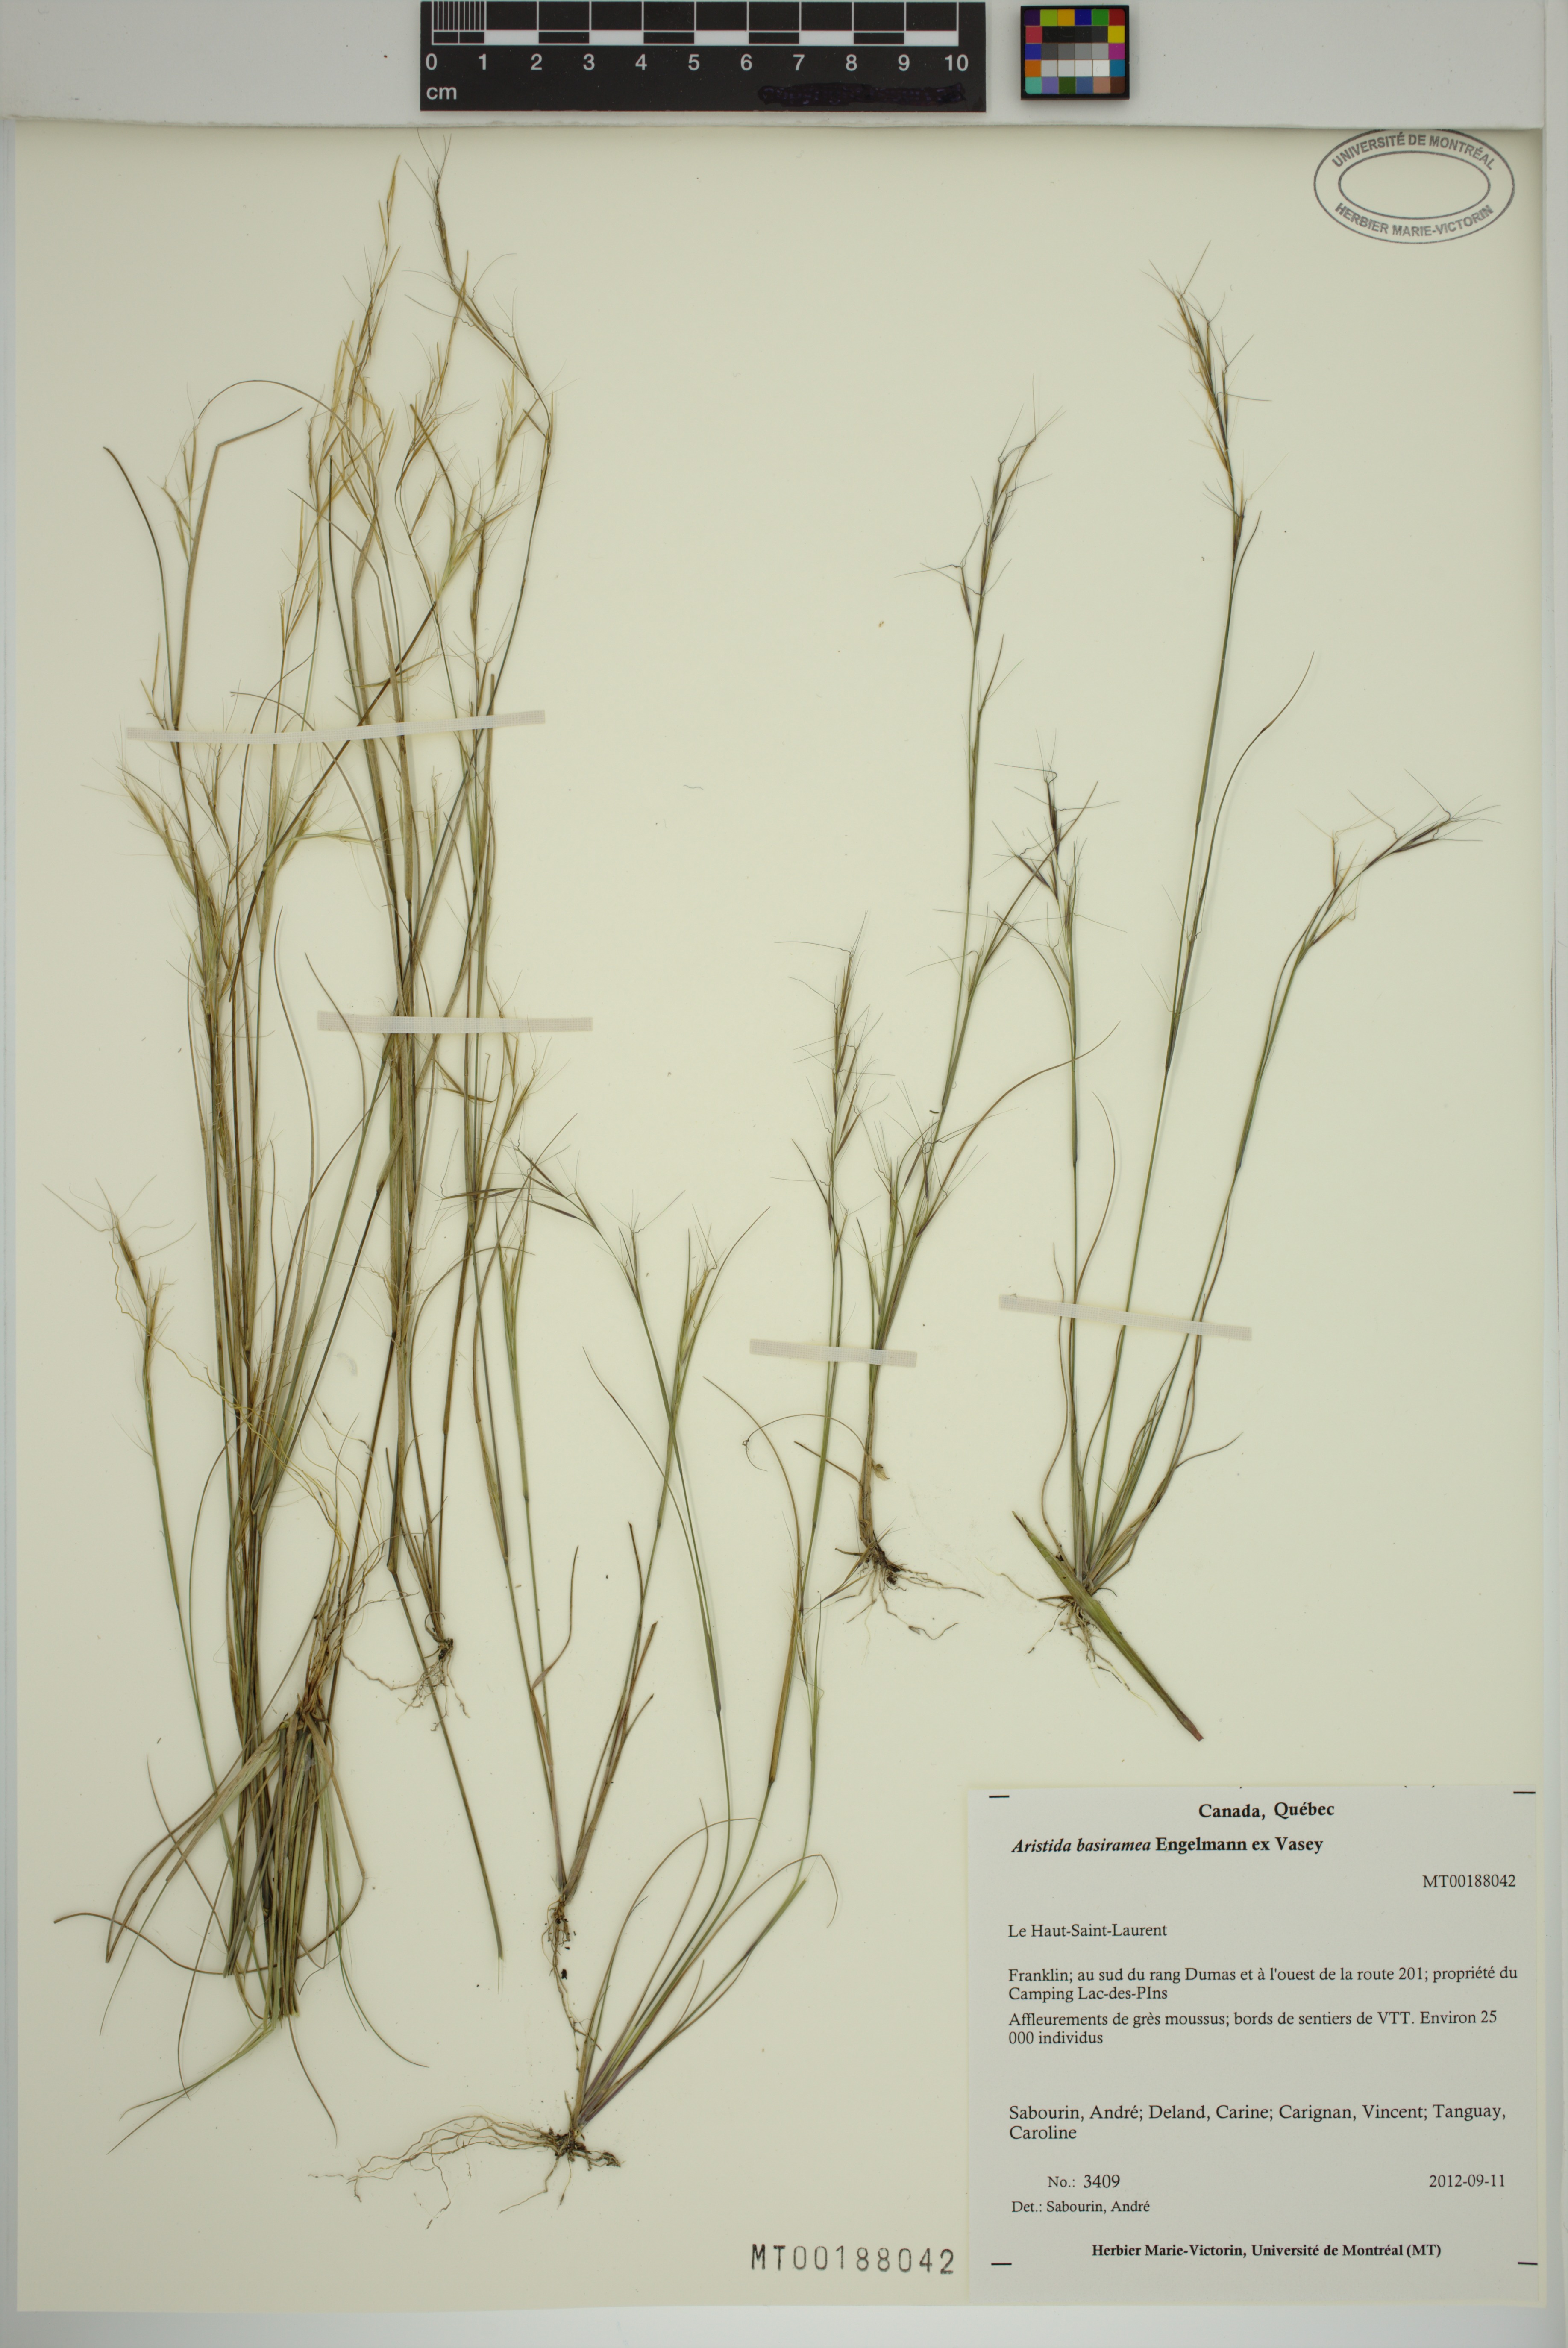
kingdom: Plantae
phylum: Tracheophyta
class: Liliopsida
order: Poales
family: Poaceae
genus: Aristida
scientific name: Aristida basiramea
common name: Forked three-awned grass
